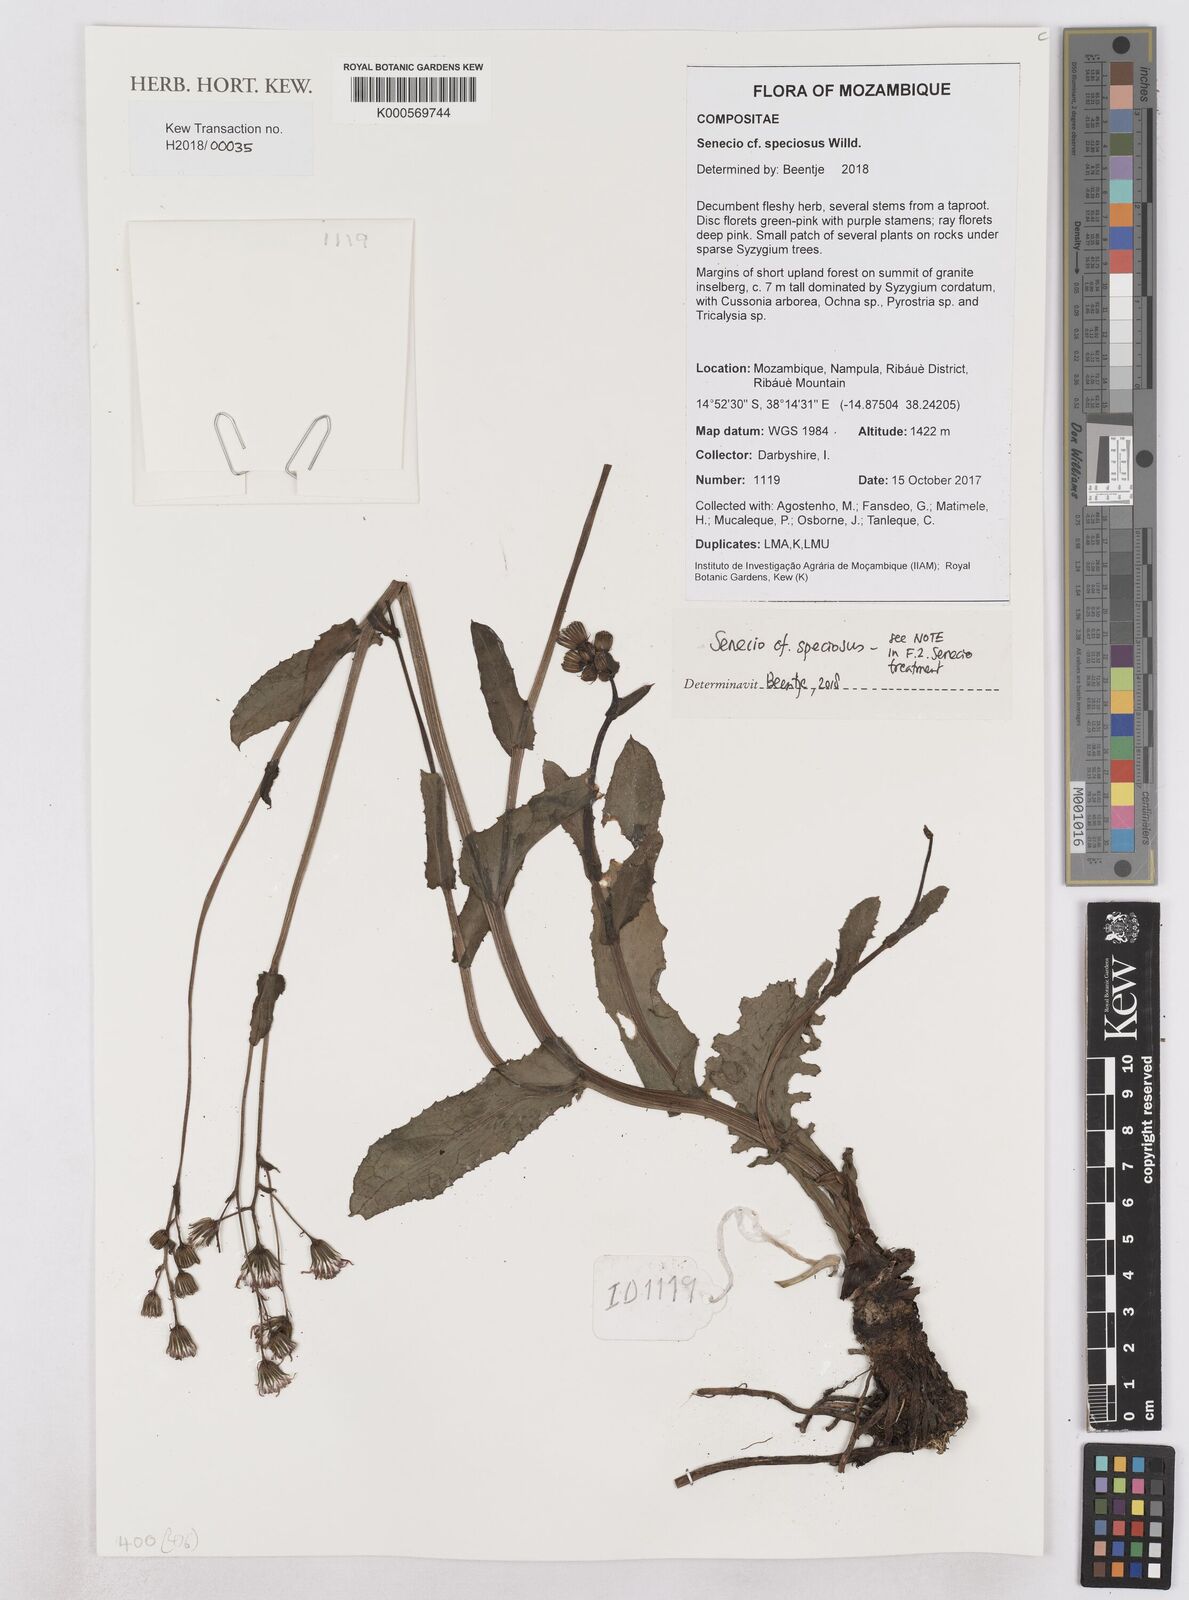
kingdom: Plantae
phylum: Tracheophyta
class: Magnoliopsida
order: Asterales
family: Asteraceae
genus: Senecio
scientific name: Senecio speciosus
